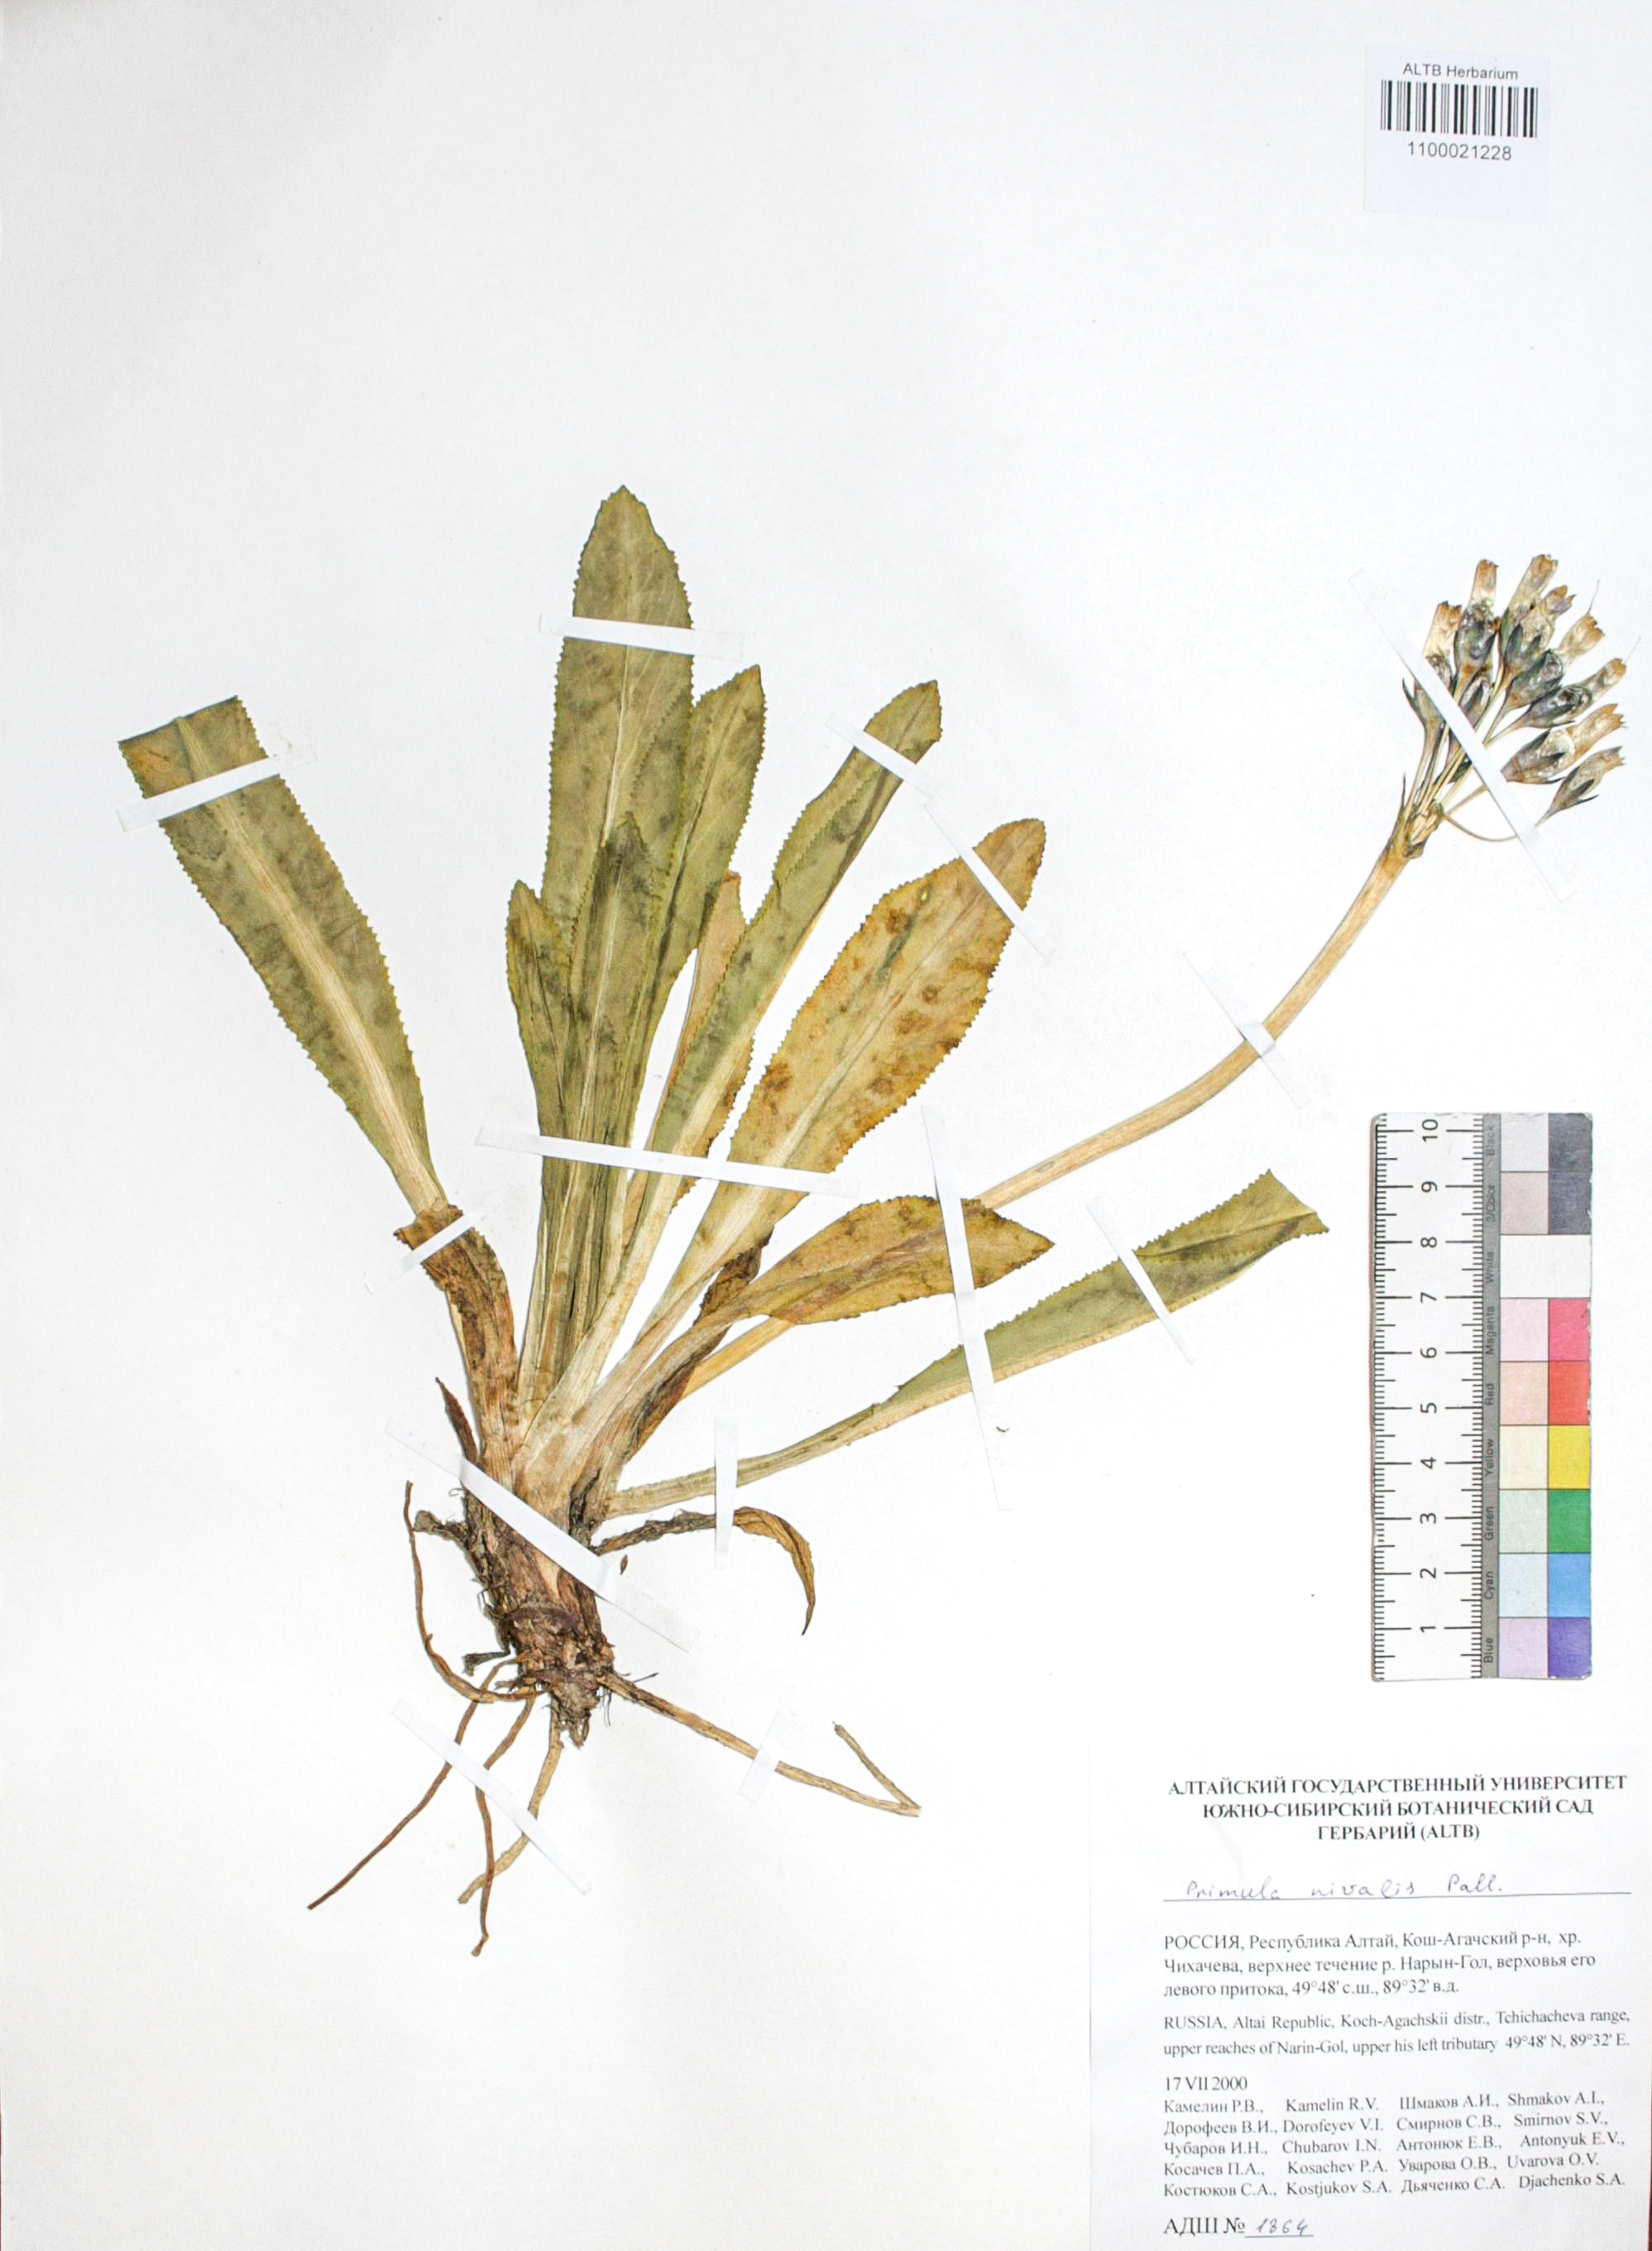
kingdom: Plantae
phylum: Tracheophyta
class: Magnoliopsida
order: Ericales
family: Primulaceae
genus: Primula
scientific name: Primula nivalis
